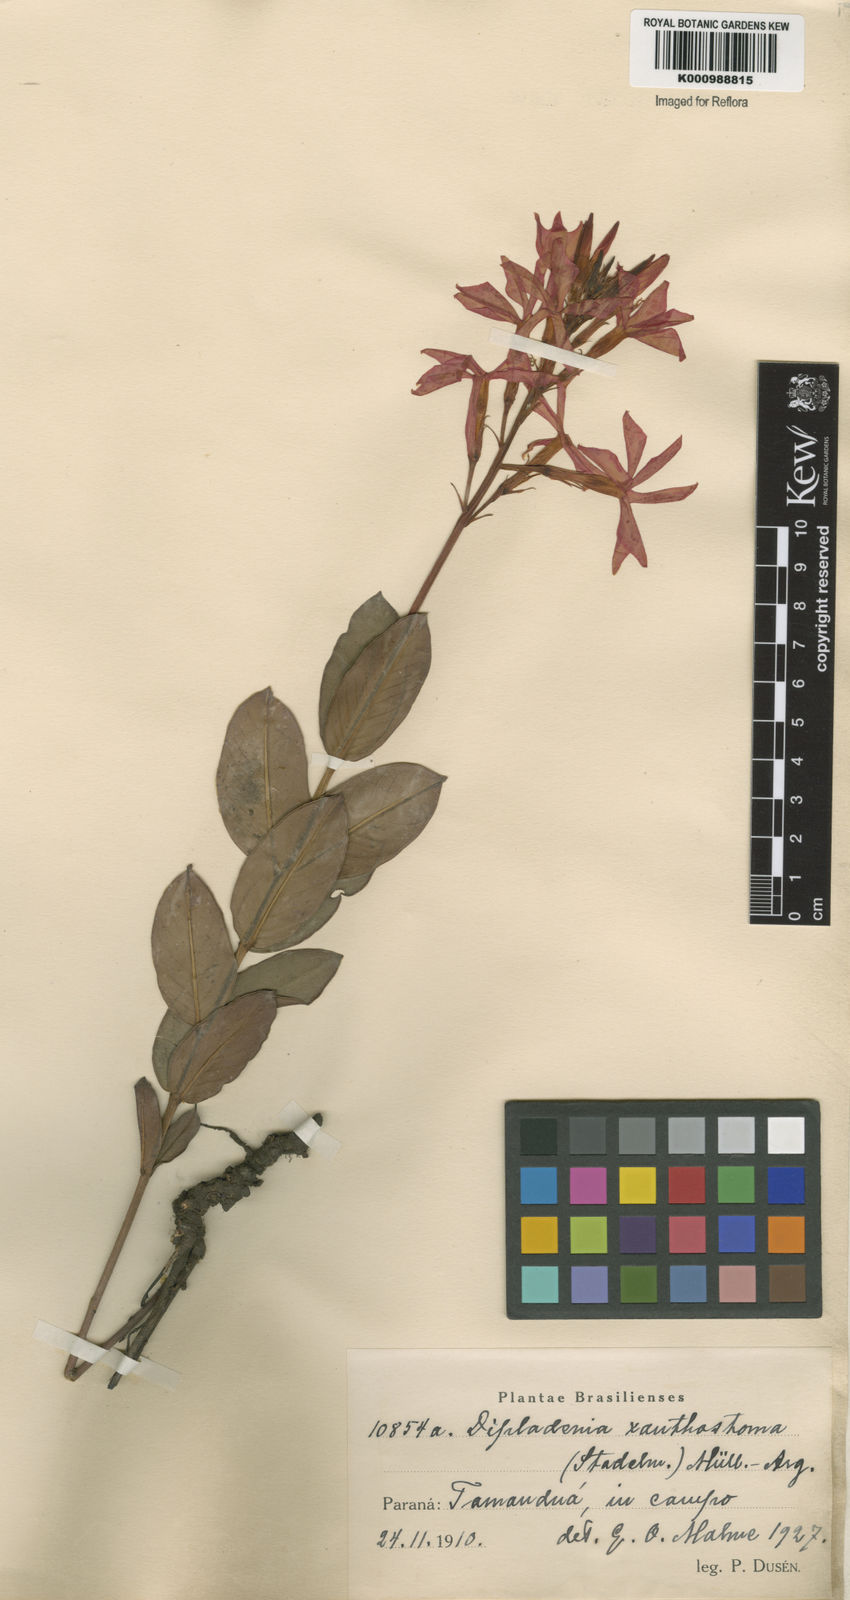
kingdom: Plantae
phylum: Tracheophyta
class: Magnoliopsida
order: Gentianales
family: Apocynaceae
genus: Mandevilla
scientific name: Mandevilla
